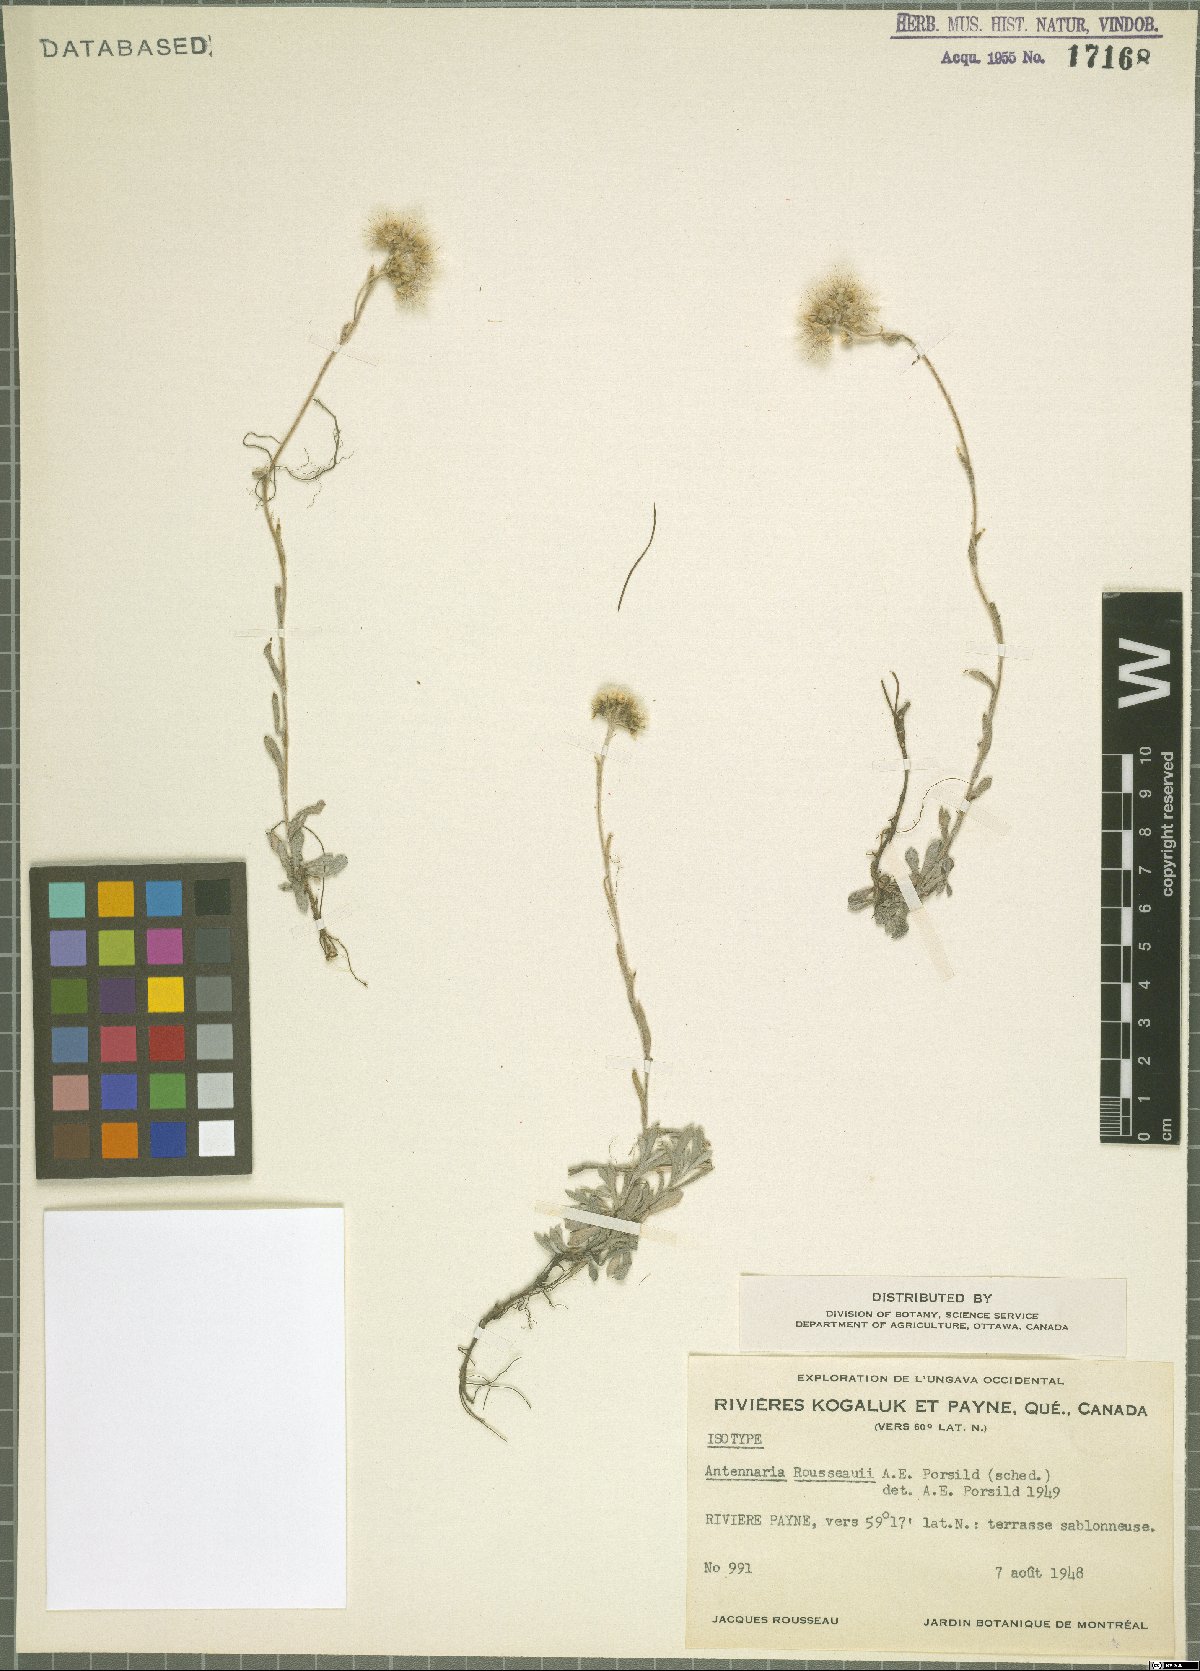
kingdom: Plantae
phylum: Tracheophyta
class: Magnoliopsida
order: Asterales
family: Asteraceae
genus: Antennaria
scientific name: Antennaria rousseaui
